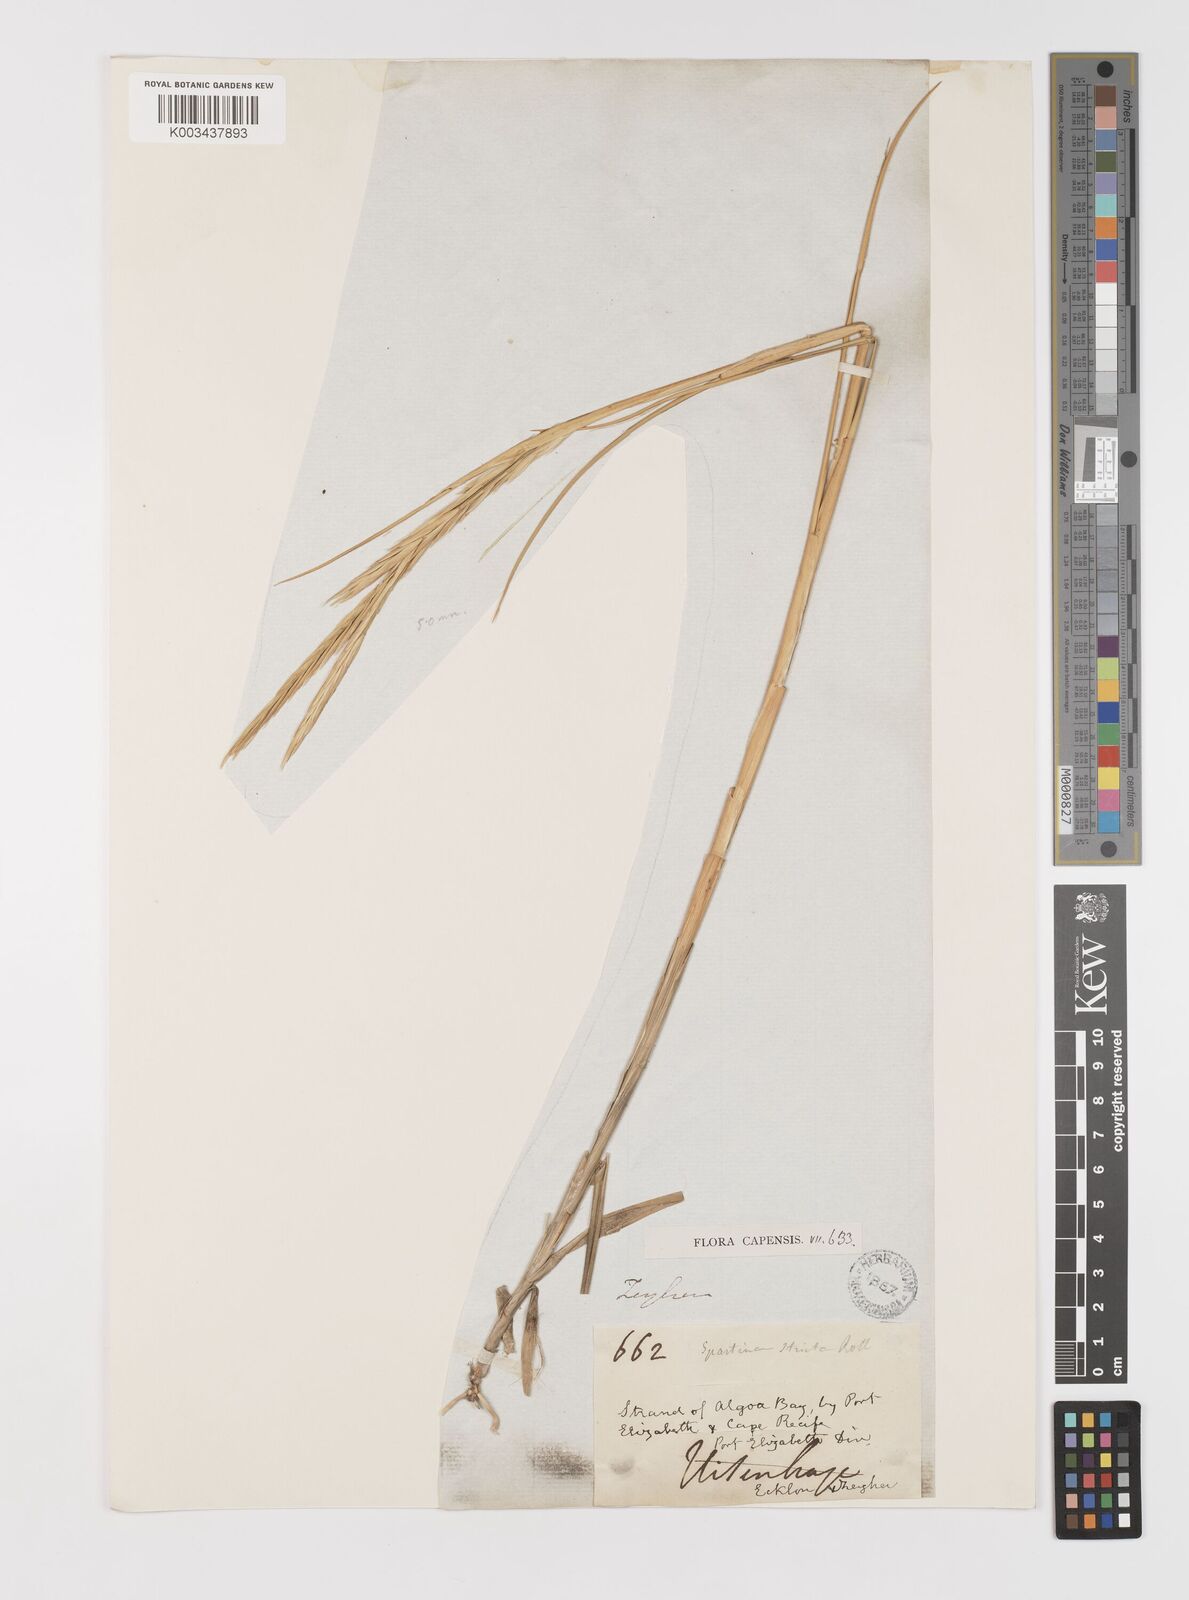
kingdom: Plantae
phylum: Tracheophyta
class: Liliopsida
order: Poales
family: Poaceae
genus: Sporobolus
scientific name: Sporobolus maritimus
